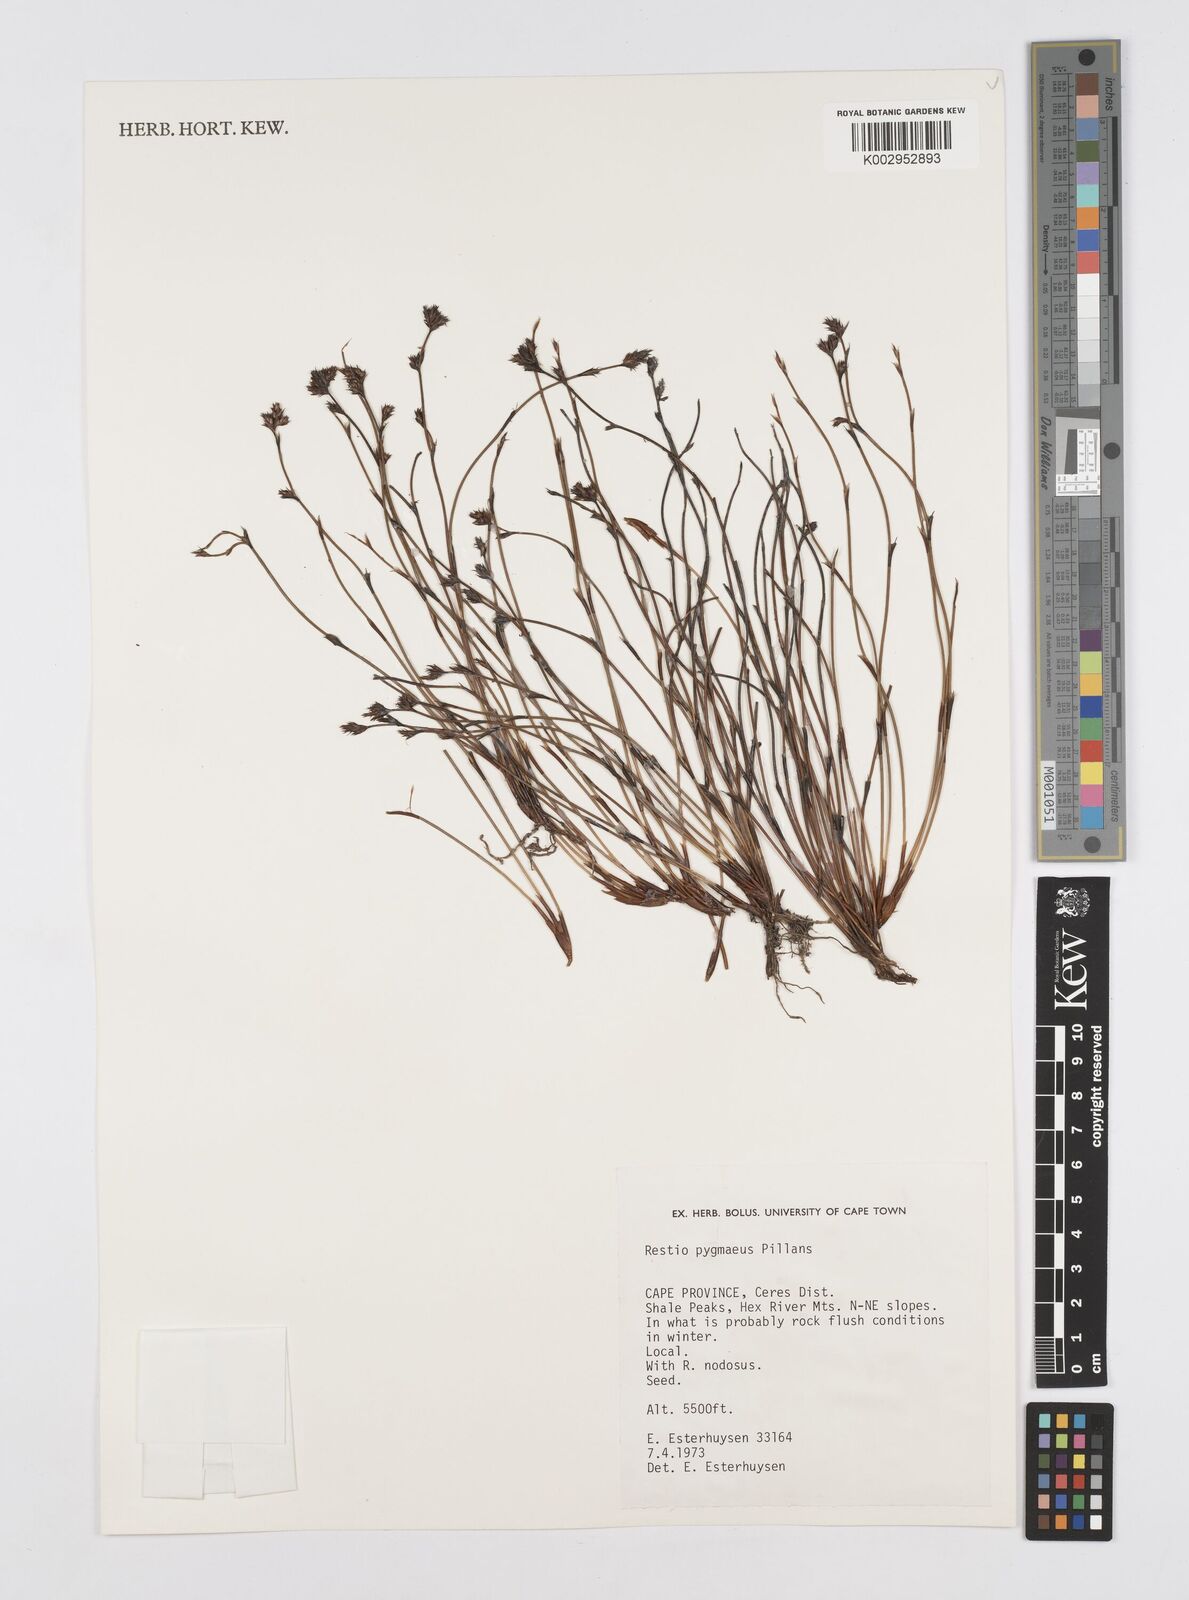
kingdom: Plantae
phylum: Tracheophyta
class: Liliopsida
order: Poales
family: Restionaceae
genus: Restio
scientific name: Restio pygmaeus
